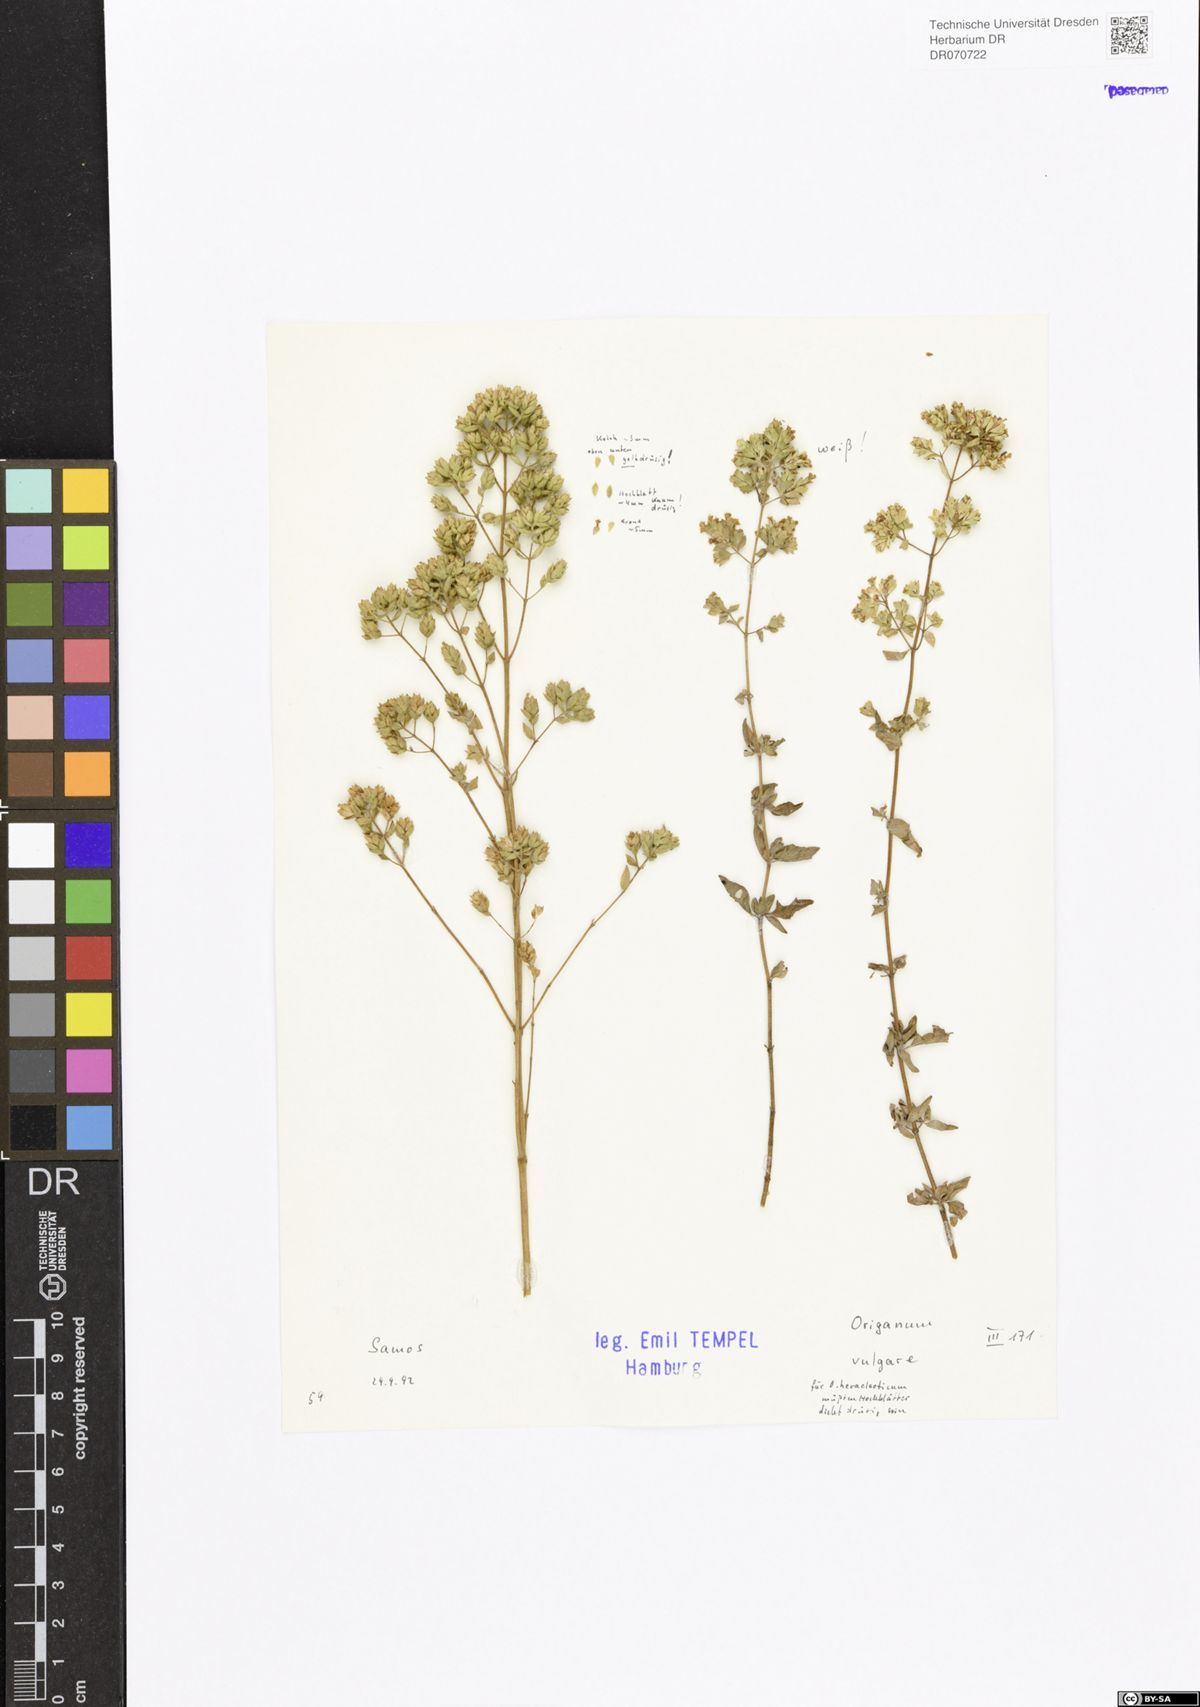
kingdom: Plantae
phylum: Tracheophyta
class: Magnoliopsida
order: Lamiales
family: Lamiaceae
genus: Origanum
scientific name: Origanum vulgare
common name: Wild marjoram
